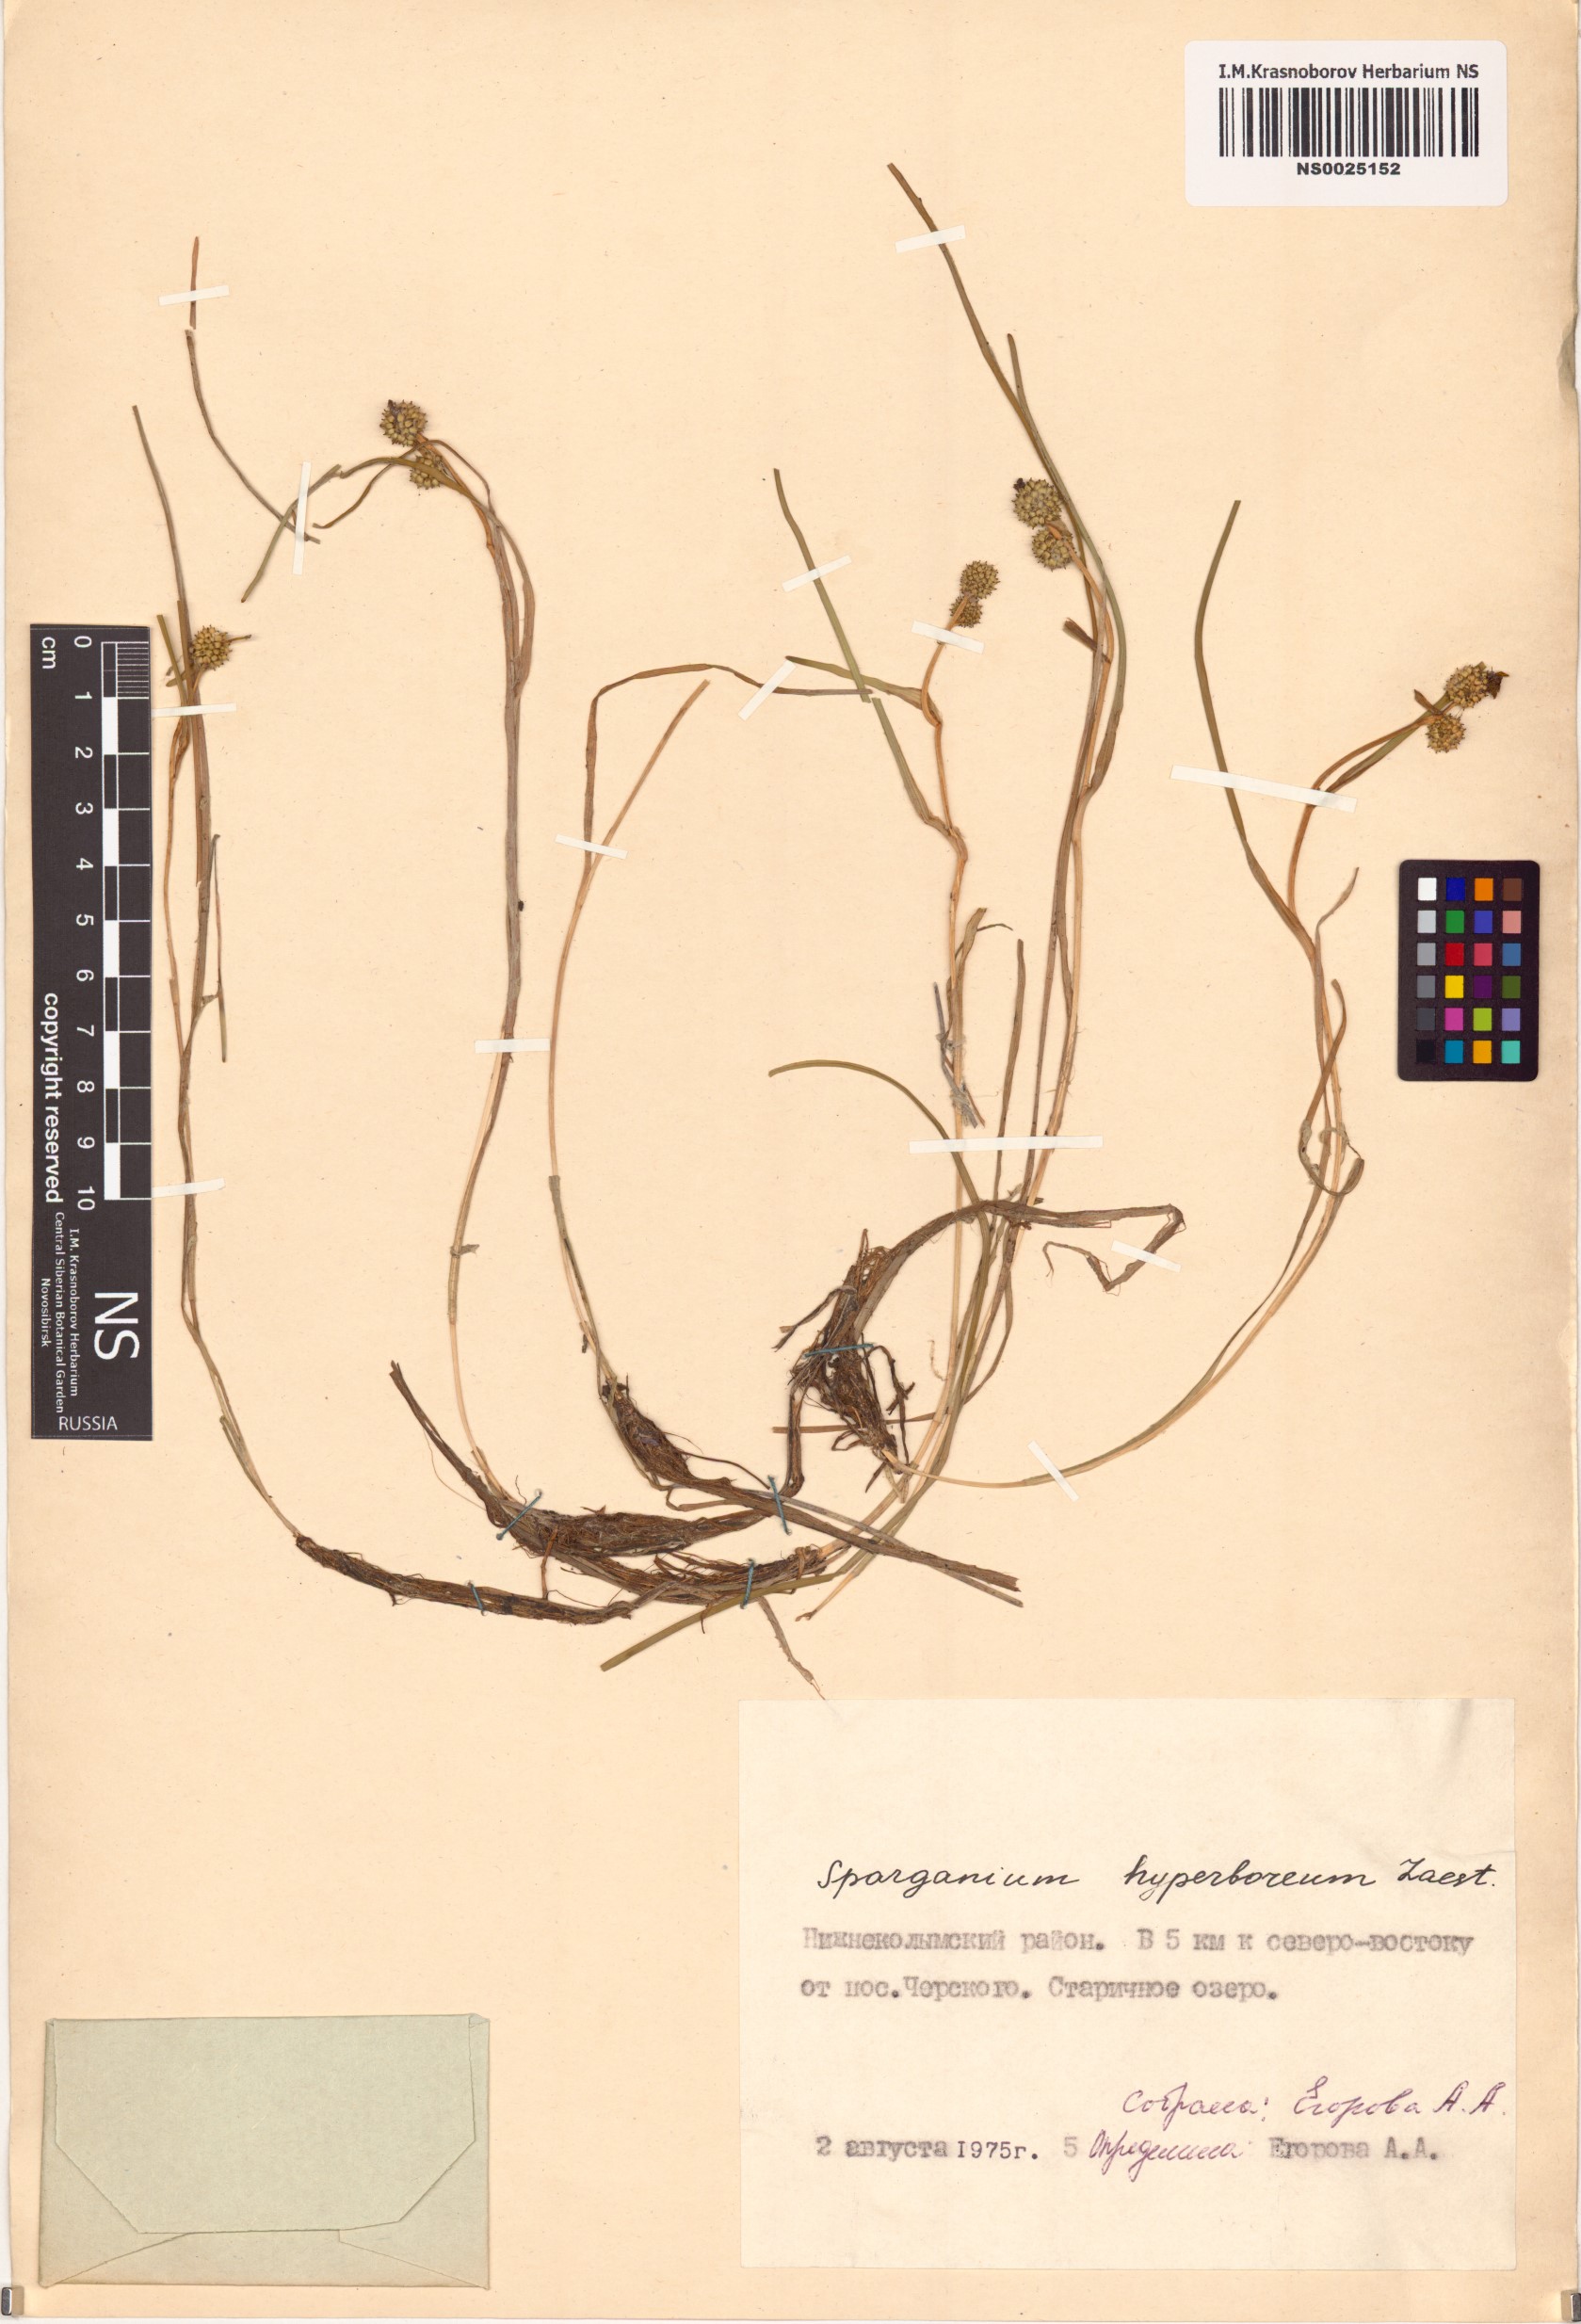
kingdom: Plantae
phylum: Tracheophyta
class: Liliopsida
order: Poales
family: Typhaceae
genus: Sparganium
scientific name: Sparganium hyperboreum
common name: Arctic burreed
